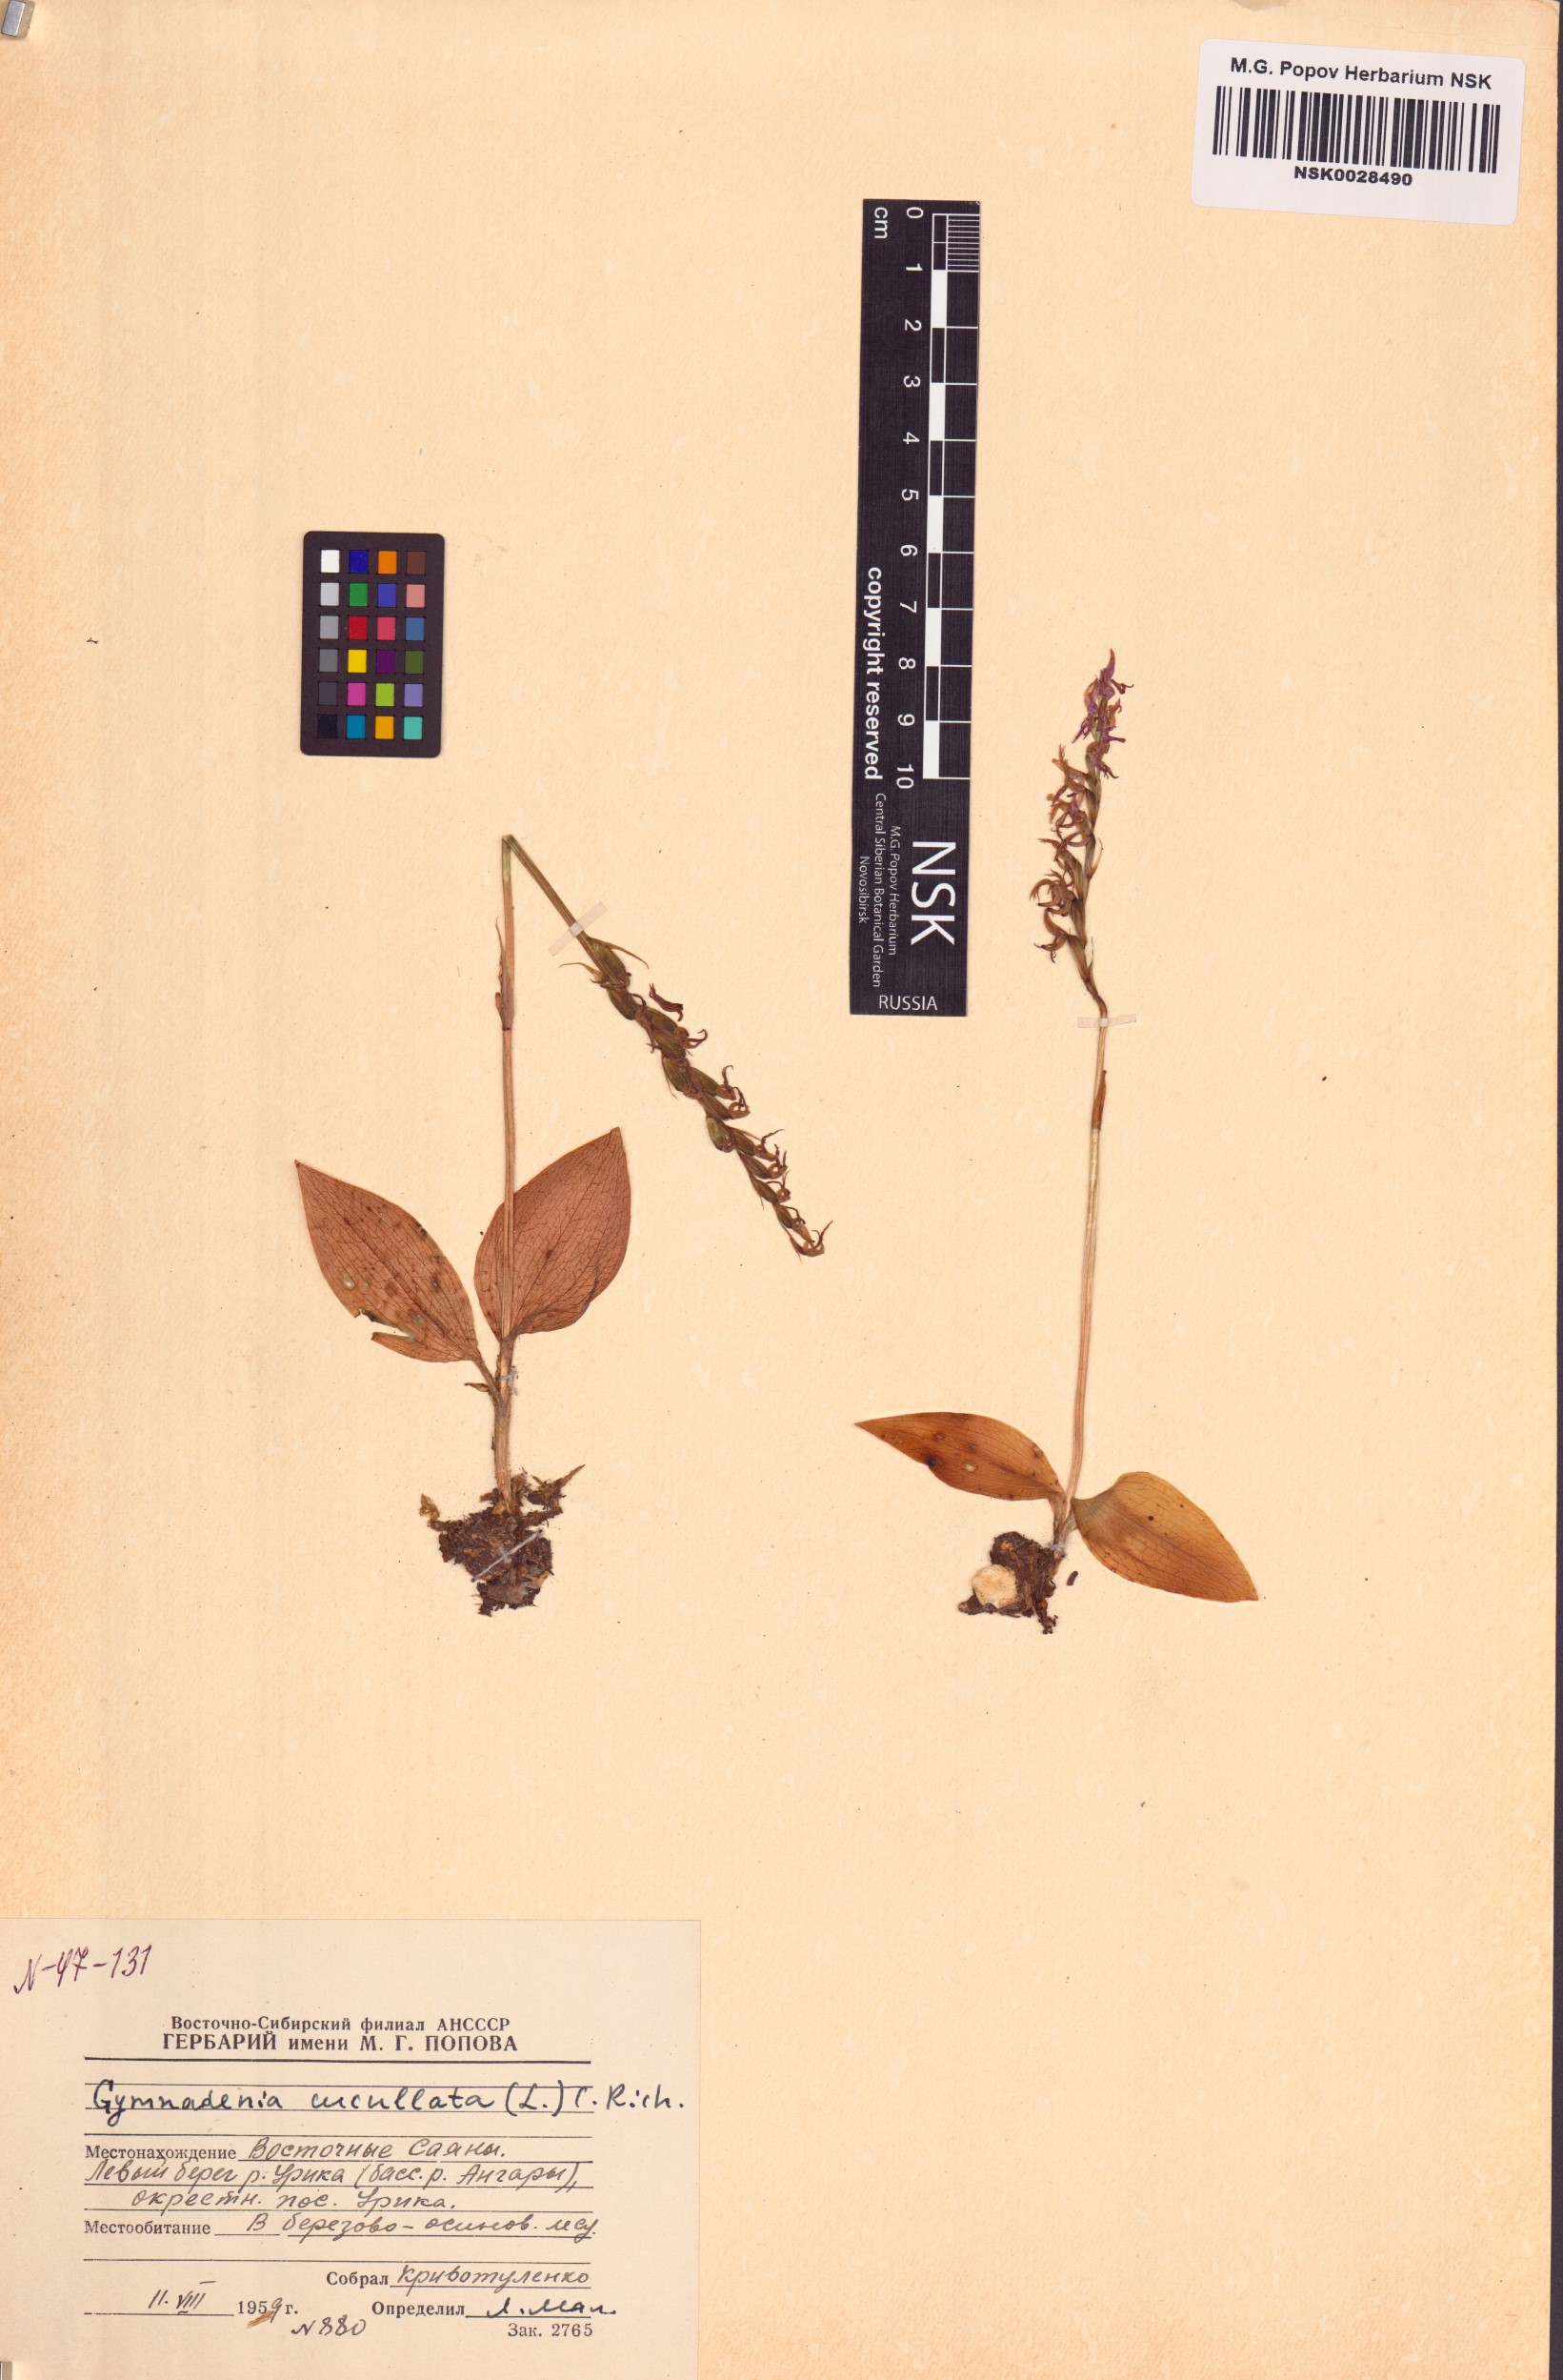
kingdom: Plantae
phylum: Tracheophyta
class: Liliopsida
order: Asparagales
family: Orchidaceae
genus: Hemipilia
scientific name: Hemipilia cucullata
